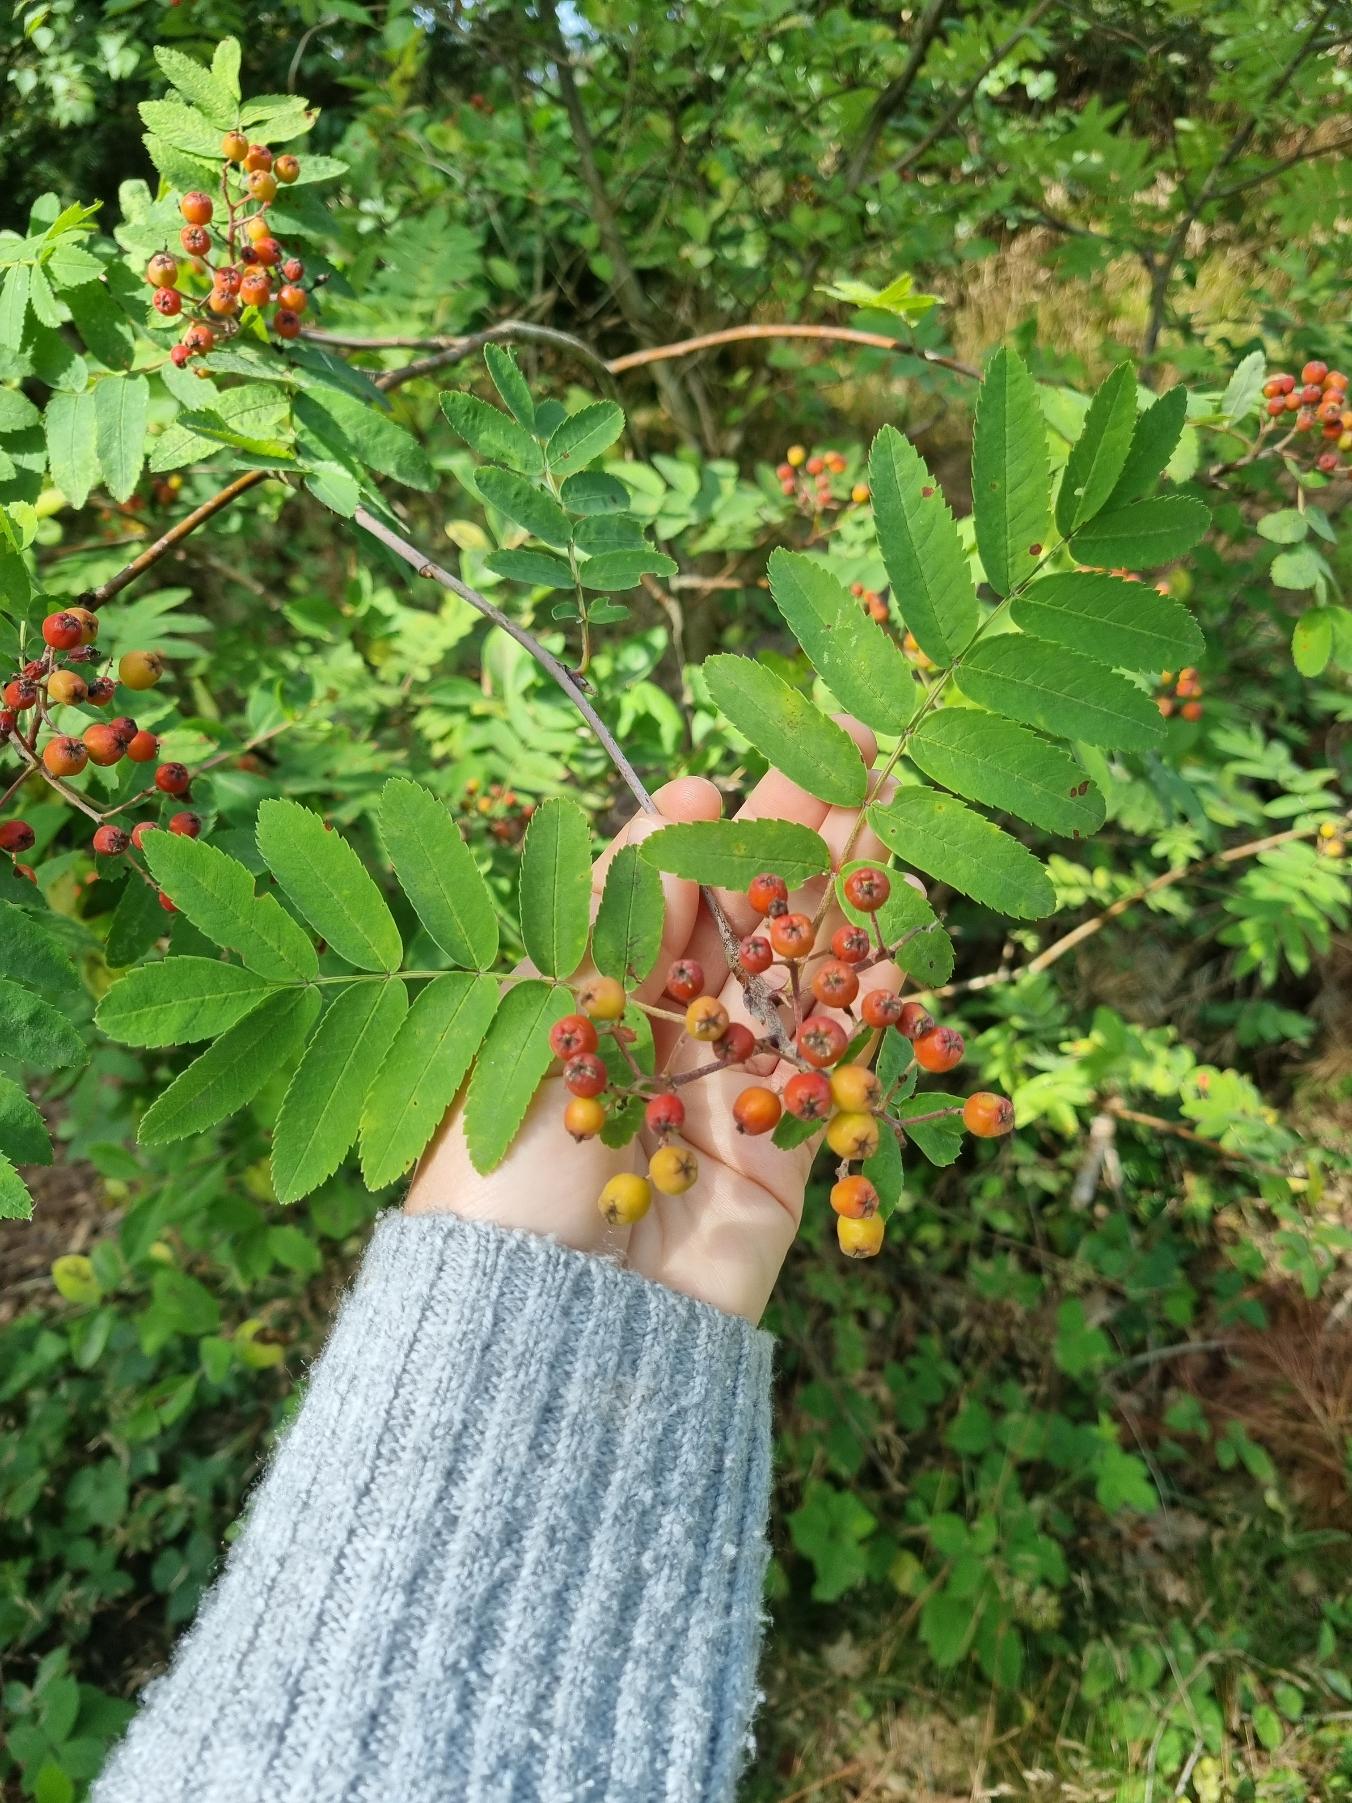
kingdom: Plantae
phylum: Tracheophyta
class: Magnoliopsida
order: Rosales
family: Rosaceae
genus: Sorbus
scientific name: Sorbus aucuparia
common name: Almindelig røn
